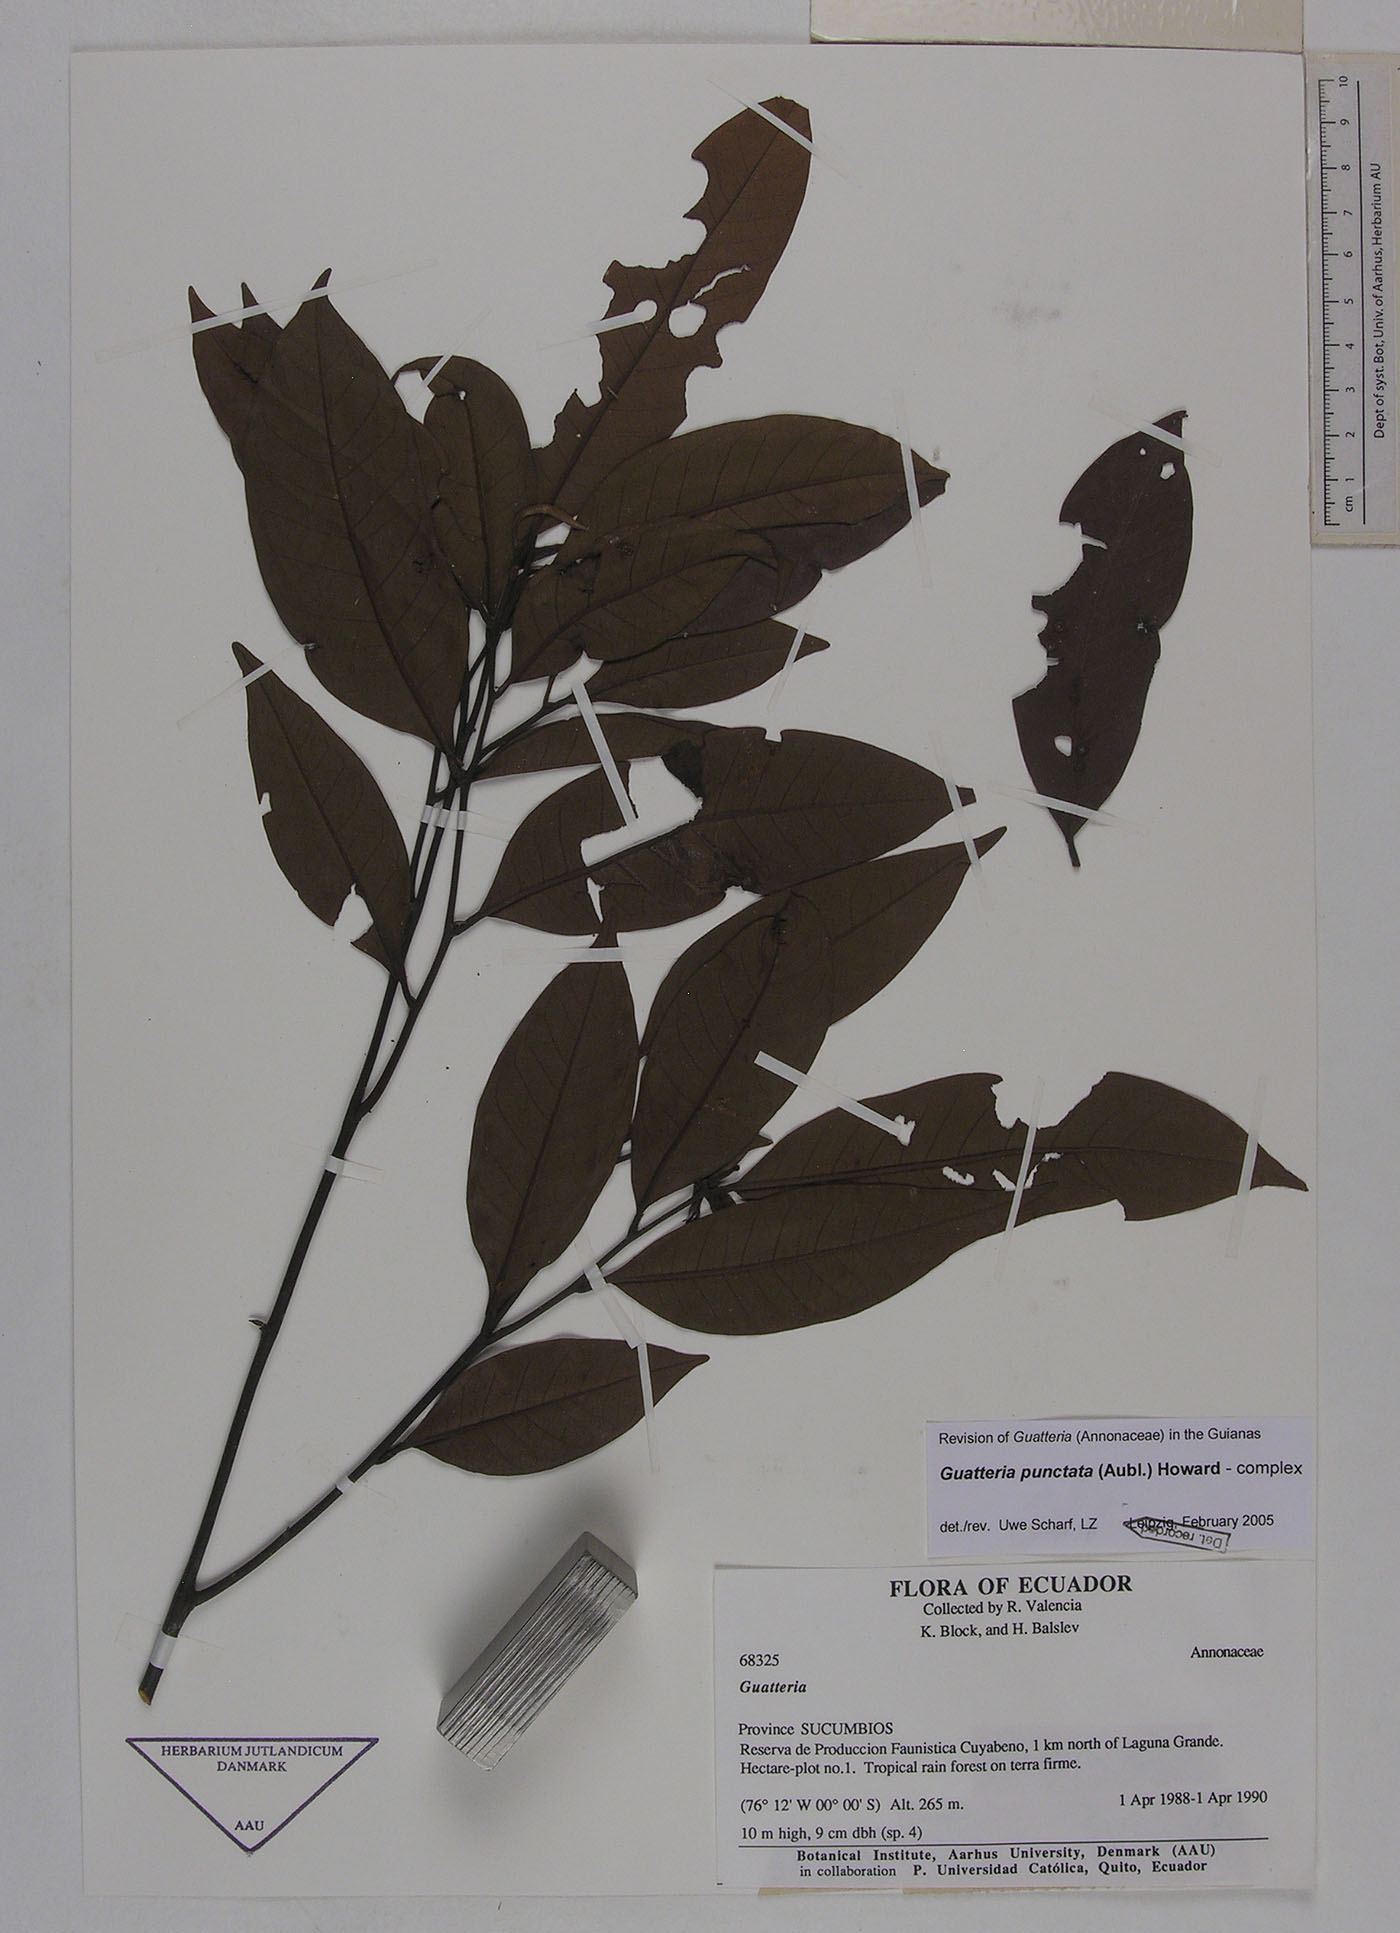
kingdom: Plantae
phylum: Tracheophyta
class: Magnoliopsida
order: Magnoliales
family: Annonaceae
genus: Guatteria
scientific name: Guatteria punctata
